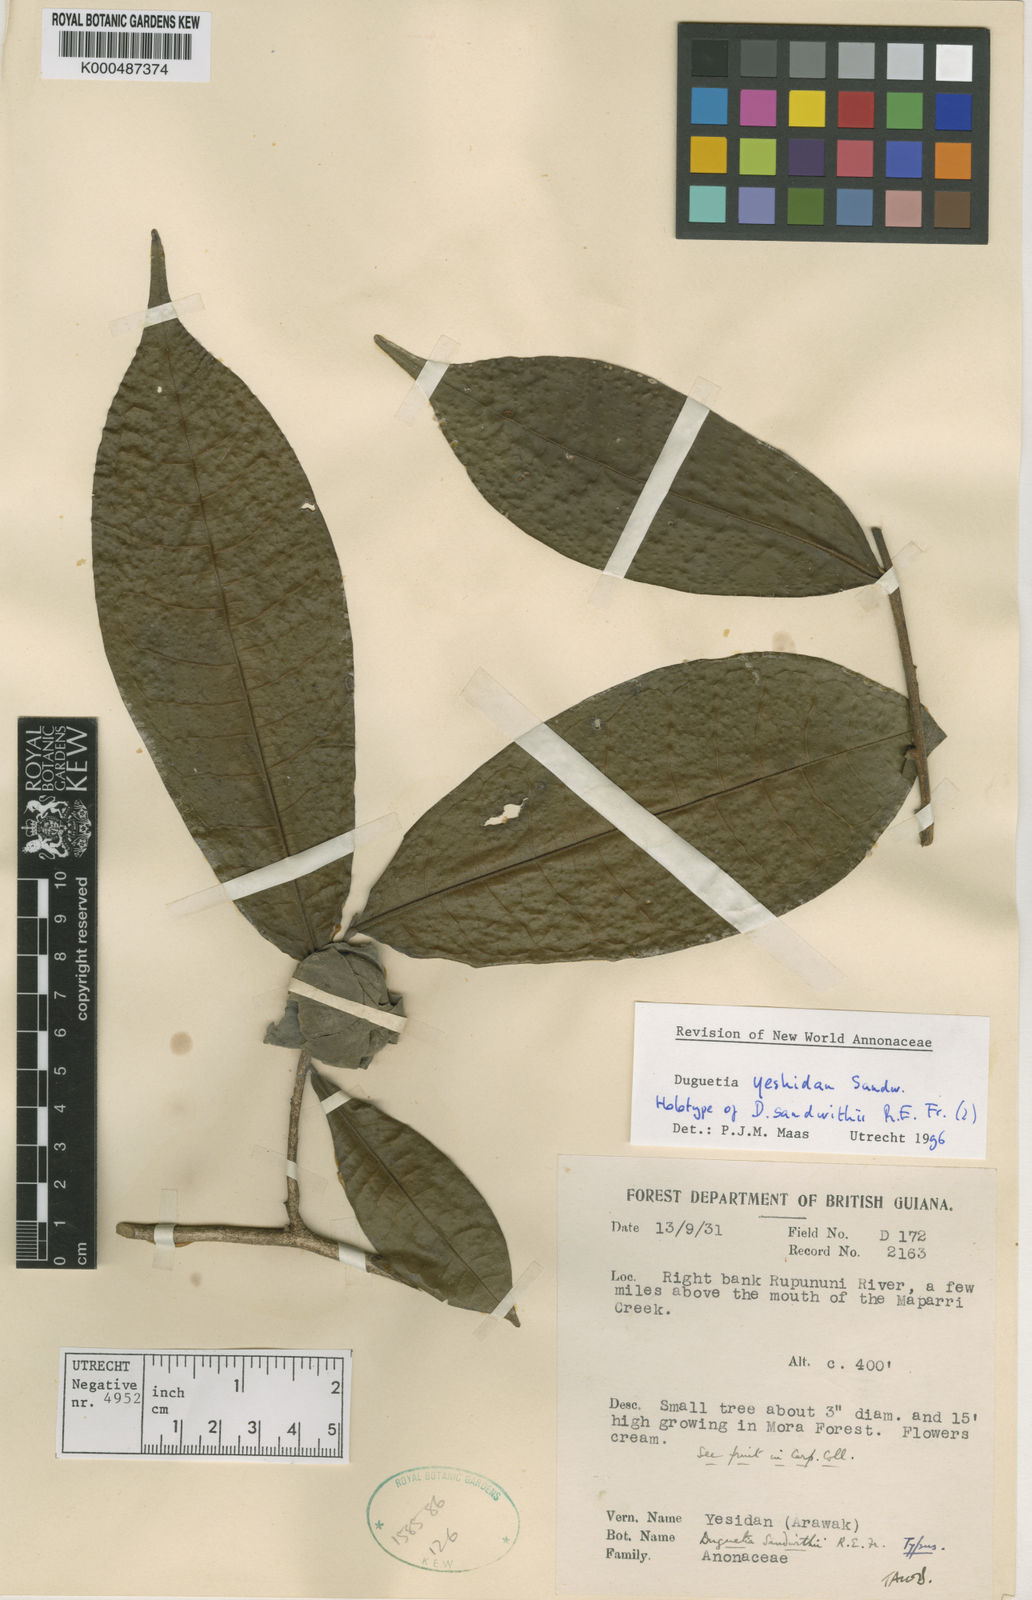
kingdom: Plantae
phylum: Tracheophyta
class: Magnoliopsida
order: Magnoliales
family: Annonaceae
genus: Duguetia
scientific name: Duguetia yeshidan
